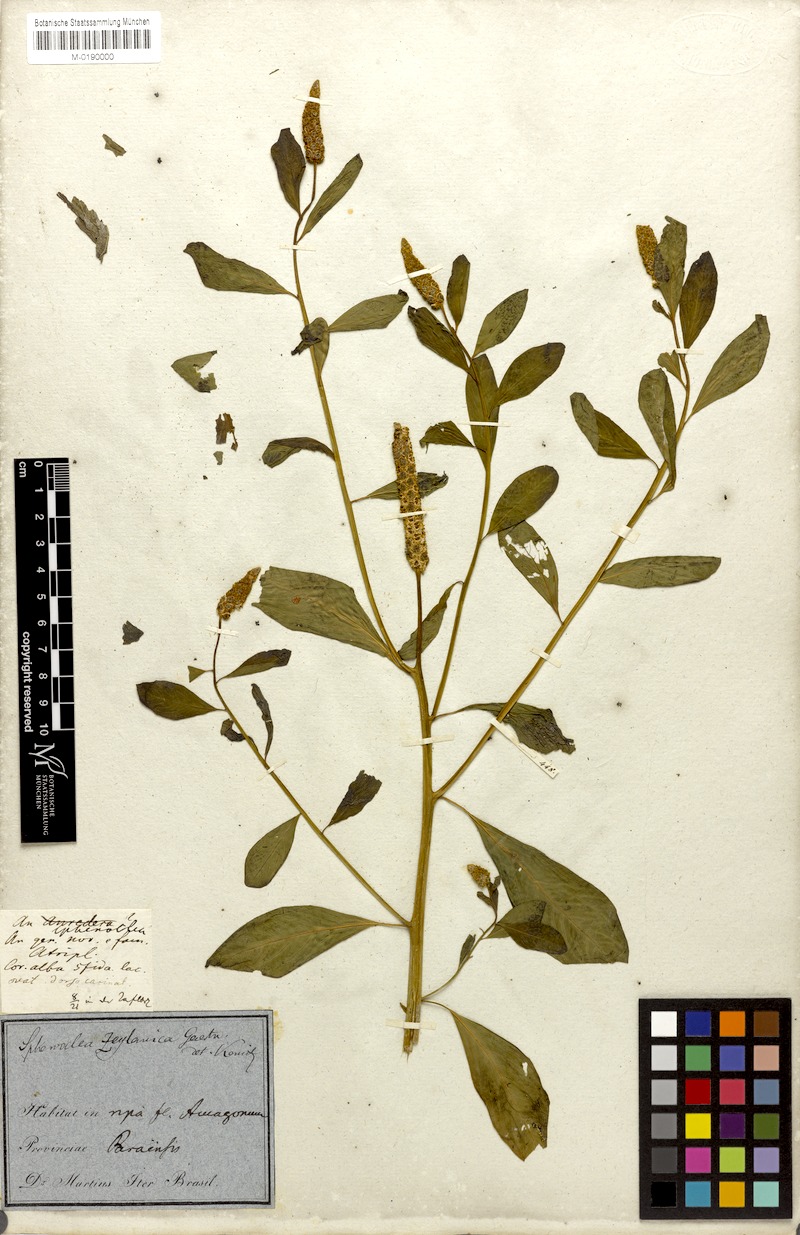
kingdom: Plantae
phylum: Tracheophyta
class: Magnoliopsida
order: Solanales
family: Sphenocleaceae
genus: Sphenoclea
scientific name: Sphenoclea zeylanica
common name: Chickenspike
